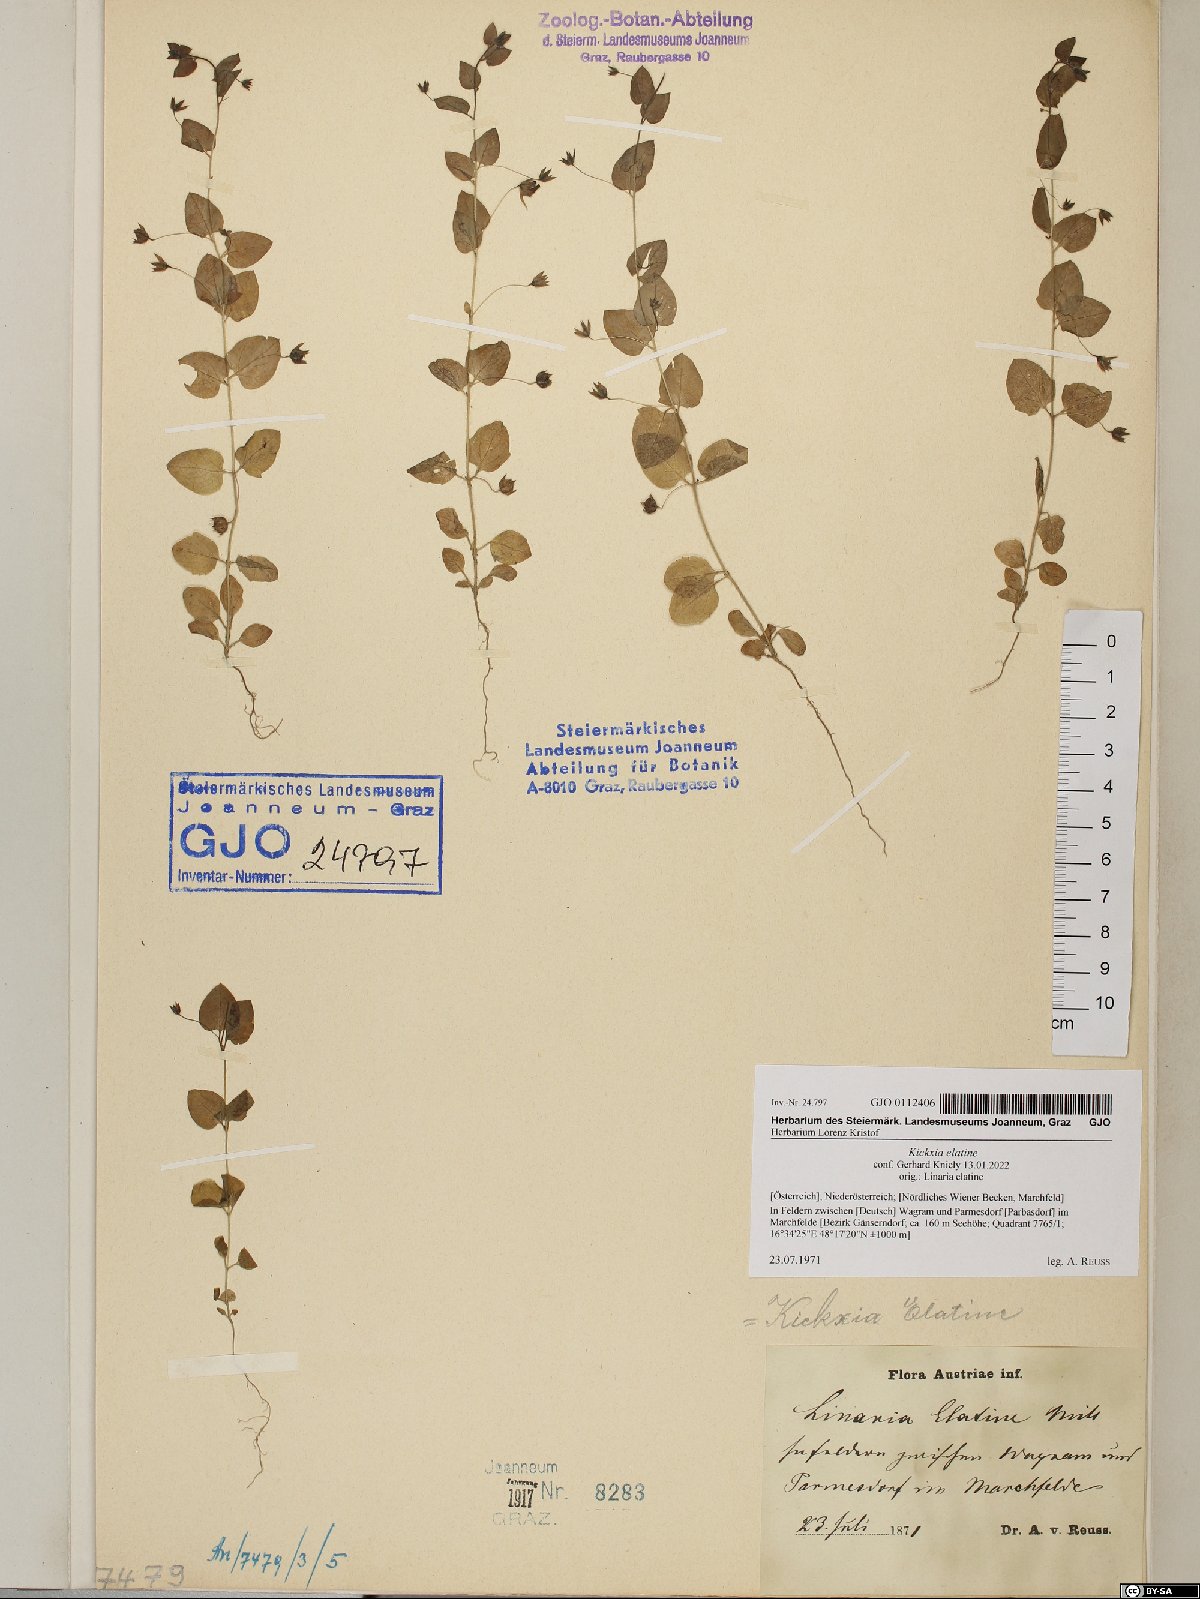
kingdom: Plantae
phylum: Tracheophyta
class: Magnoliopsida
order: Lamiales
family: Plantaginaceae
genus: Kickxia
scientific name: Kickxia elatine
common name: Sharp-leaved fluellen
